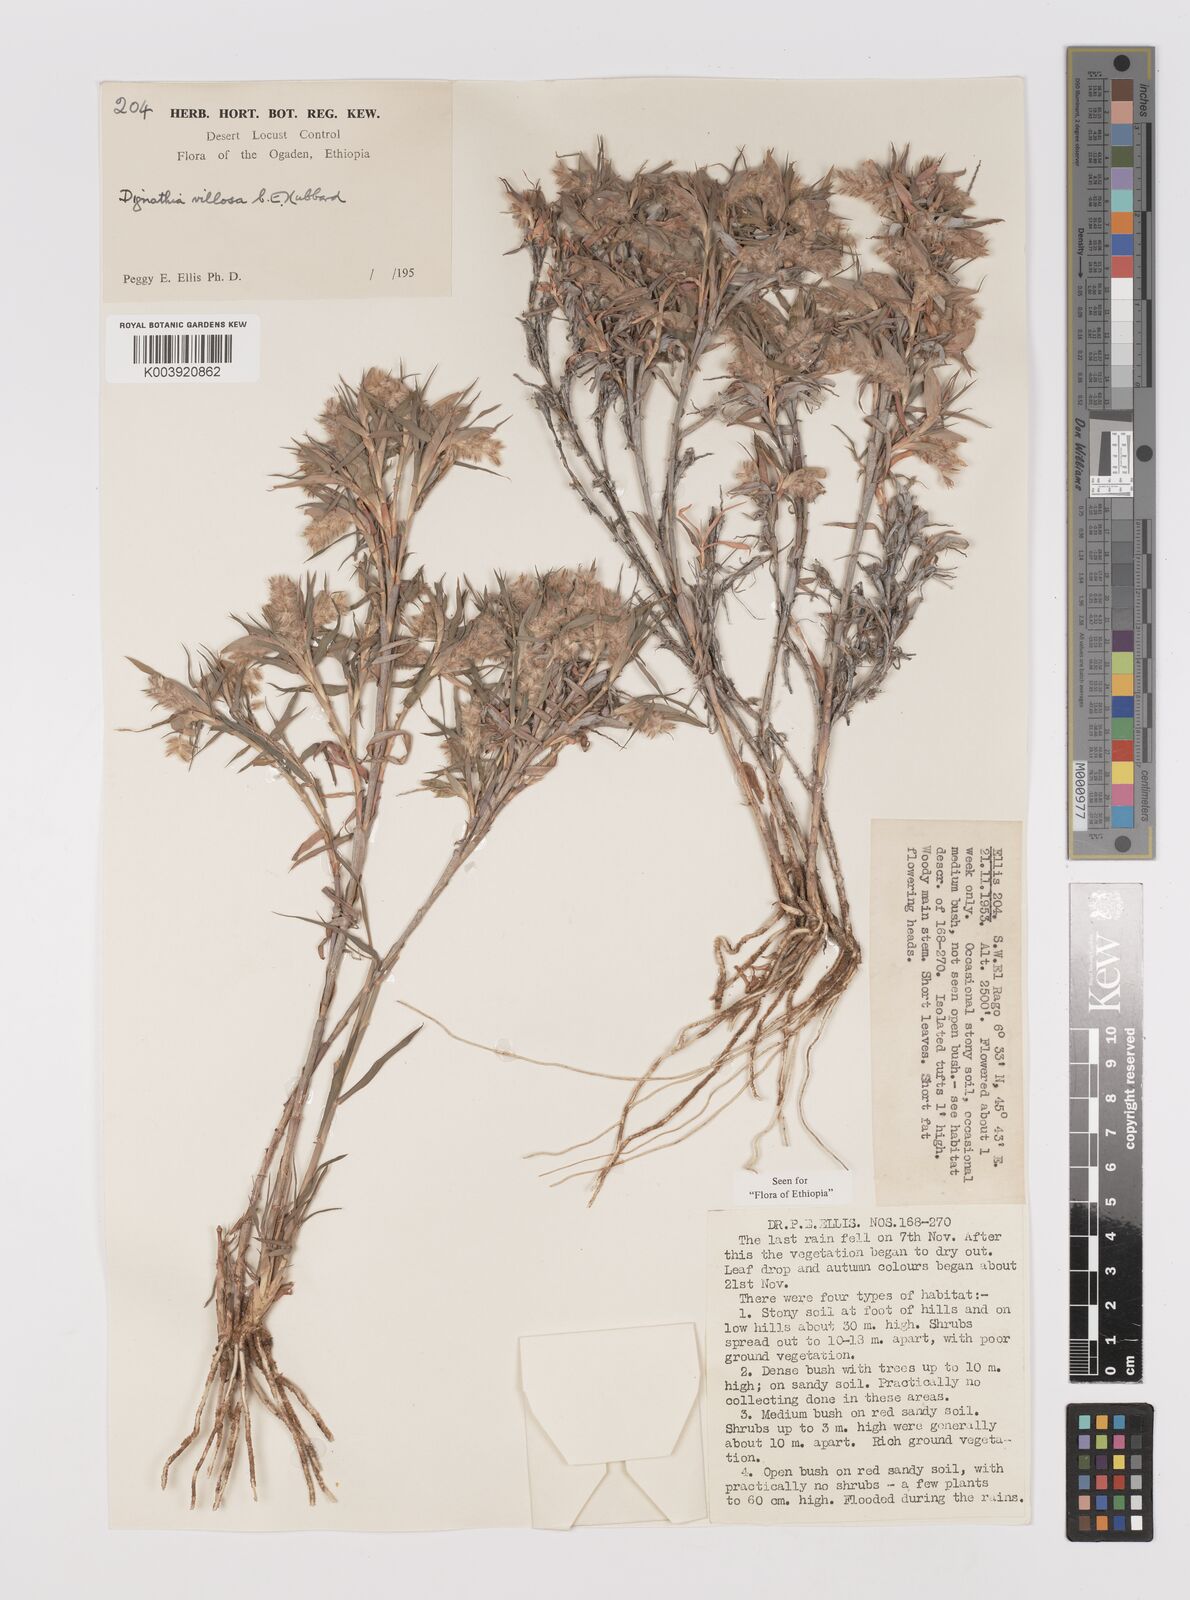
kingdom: Plantae
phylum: Tracheophyta
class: Liliopsida
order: Poales
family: Poaceae
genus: Dignathia
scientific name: Dignathia villosa
